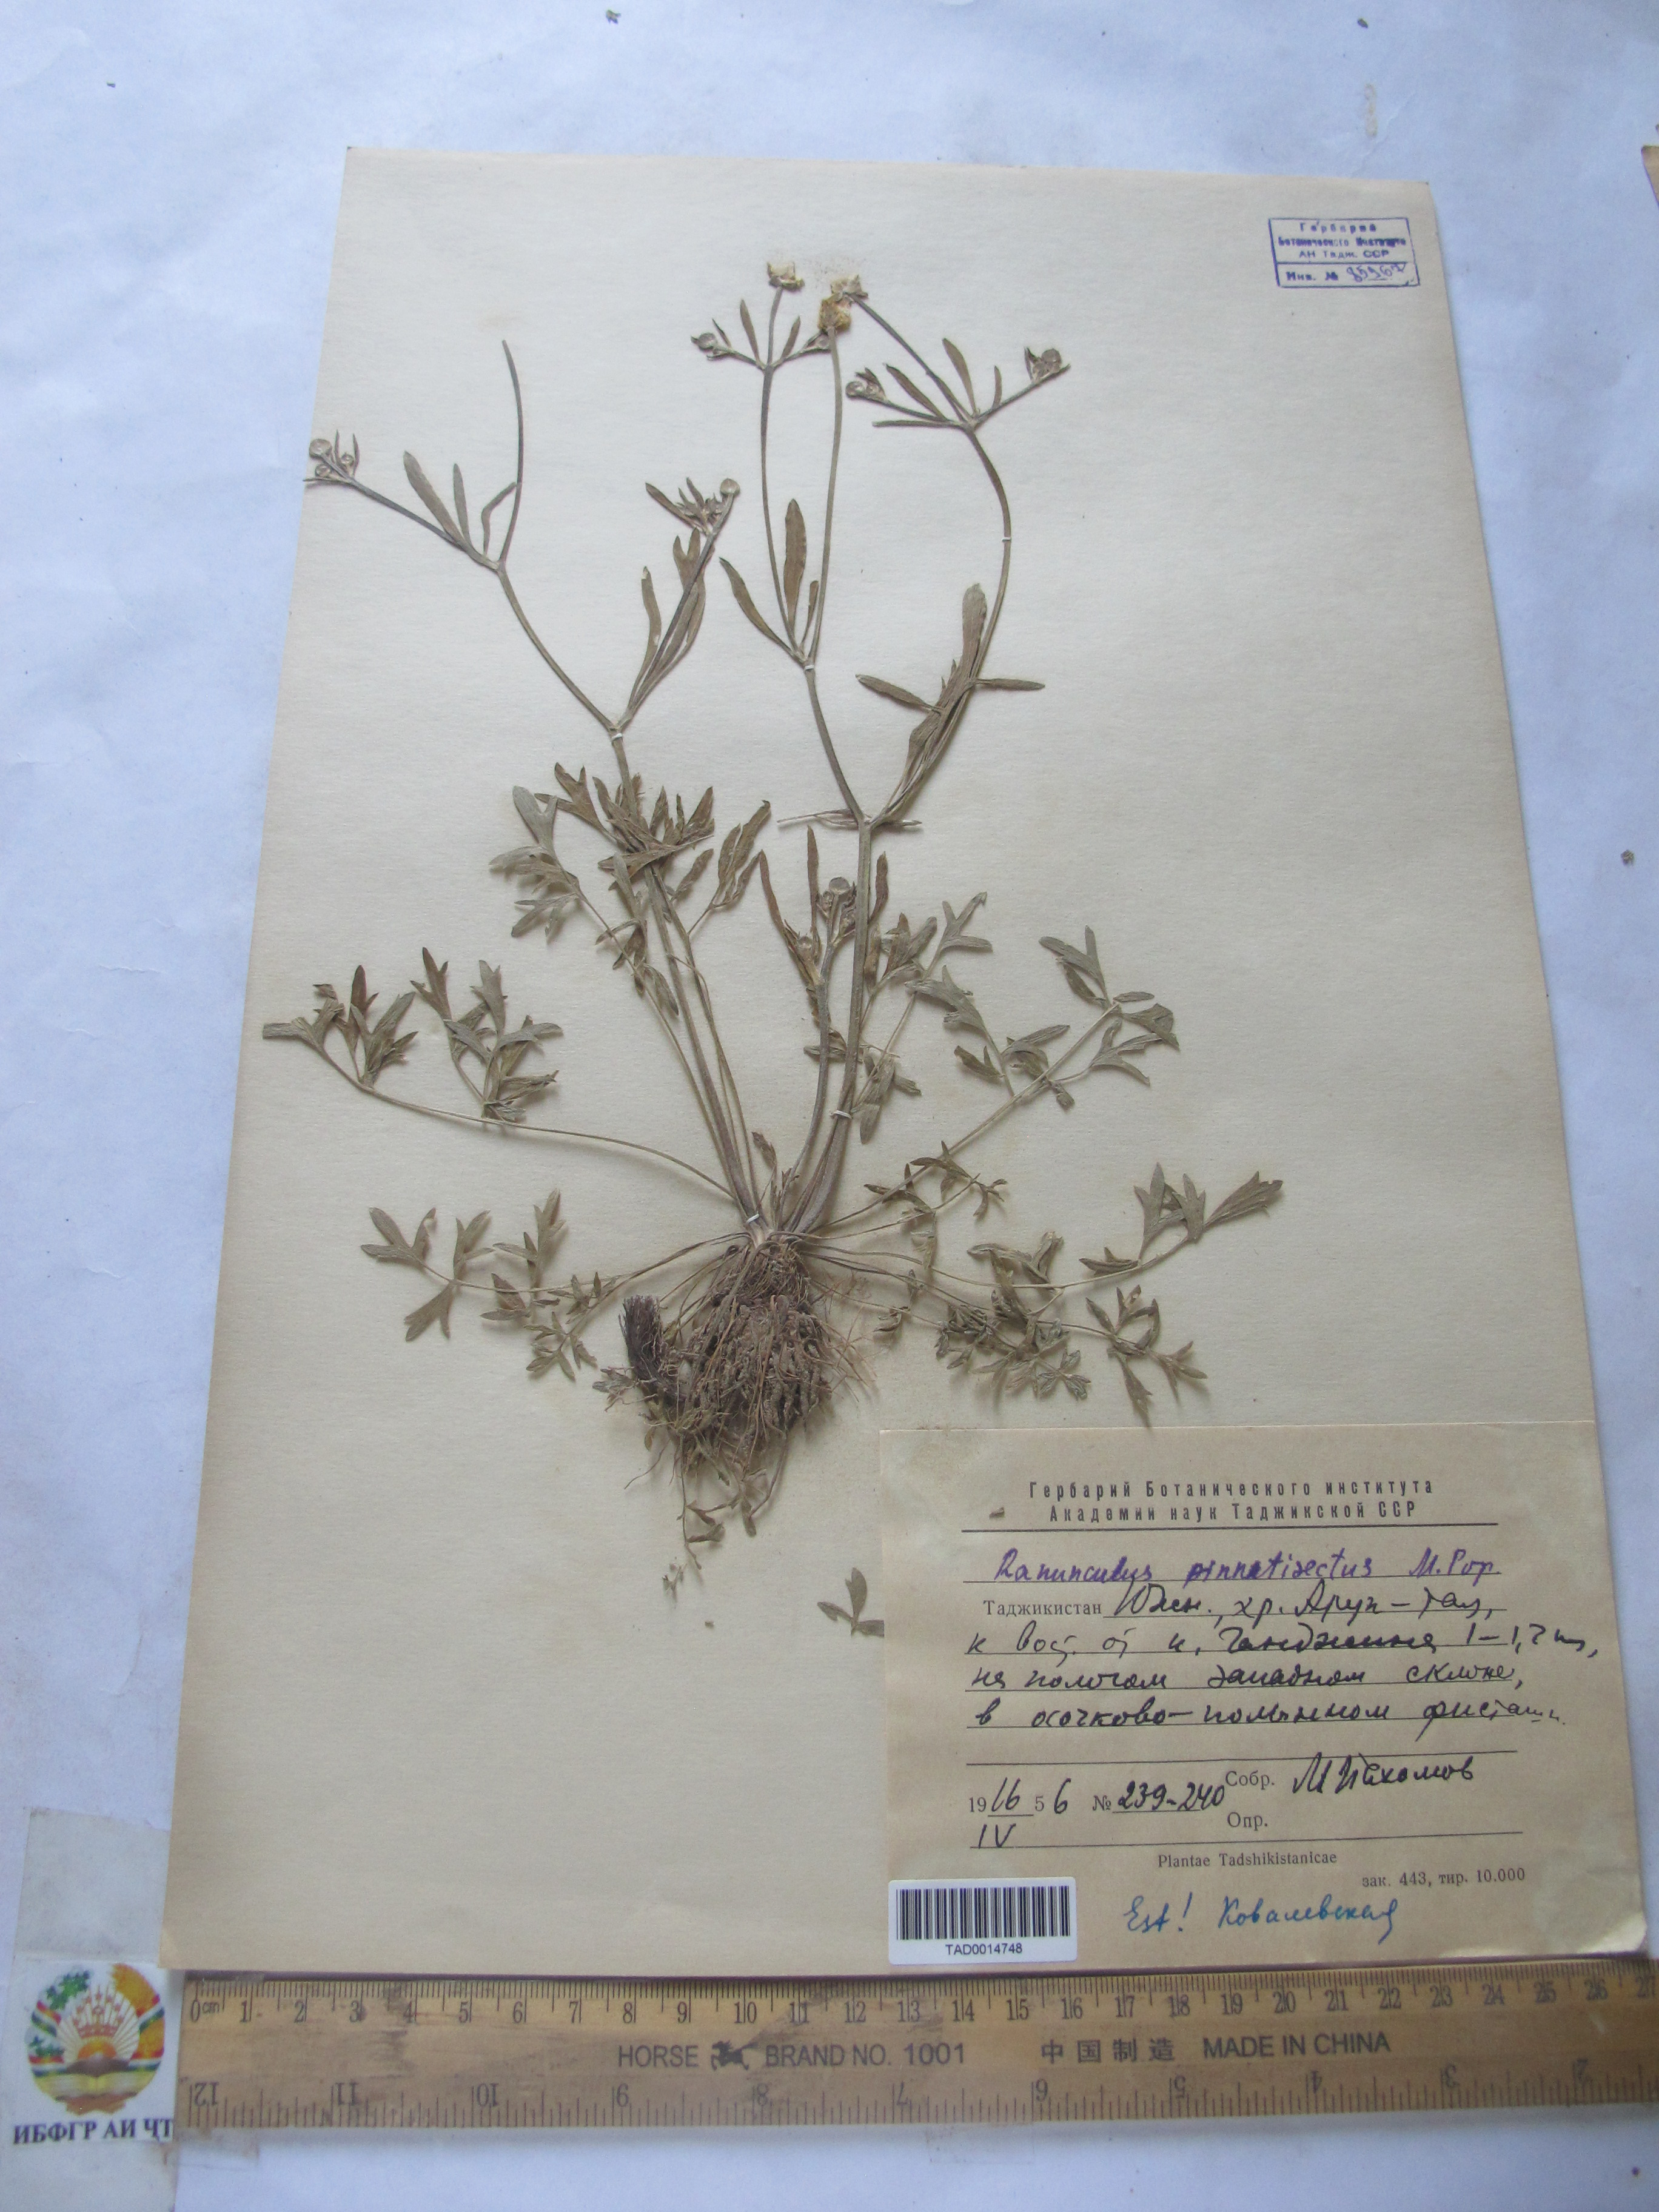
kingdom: Plantae
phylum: Tracheophyta
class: Magnoliopsida
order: Ranunculales
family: Ranunculaceae
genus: Ranunculus
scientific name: Ranunculus pinnatisectus
